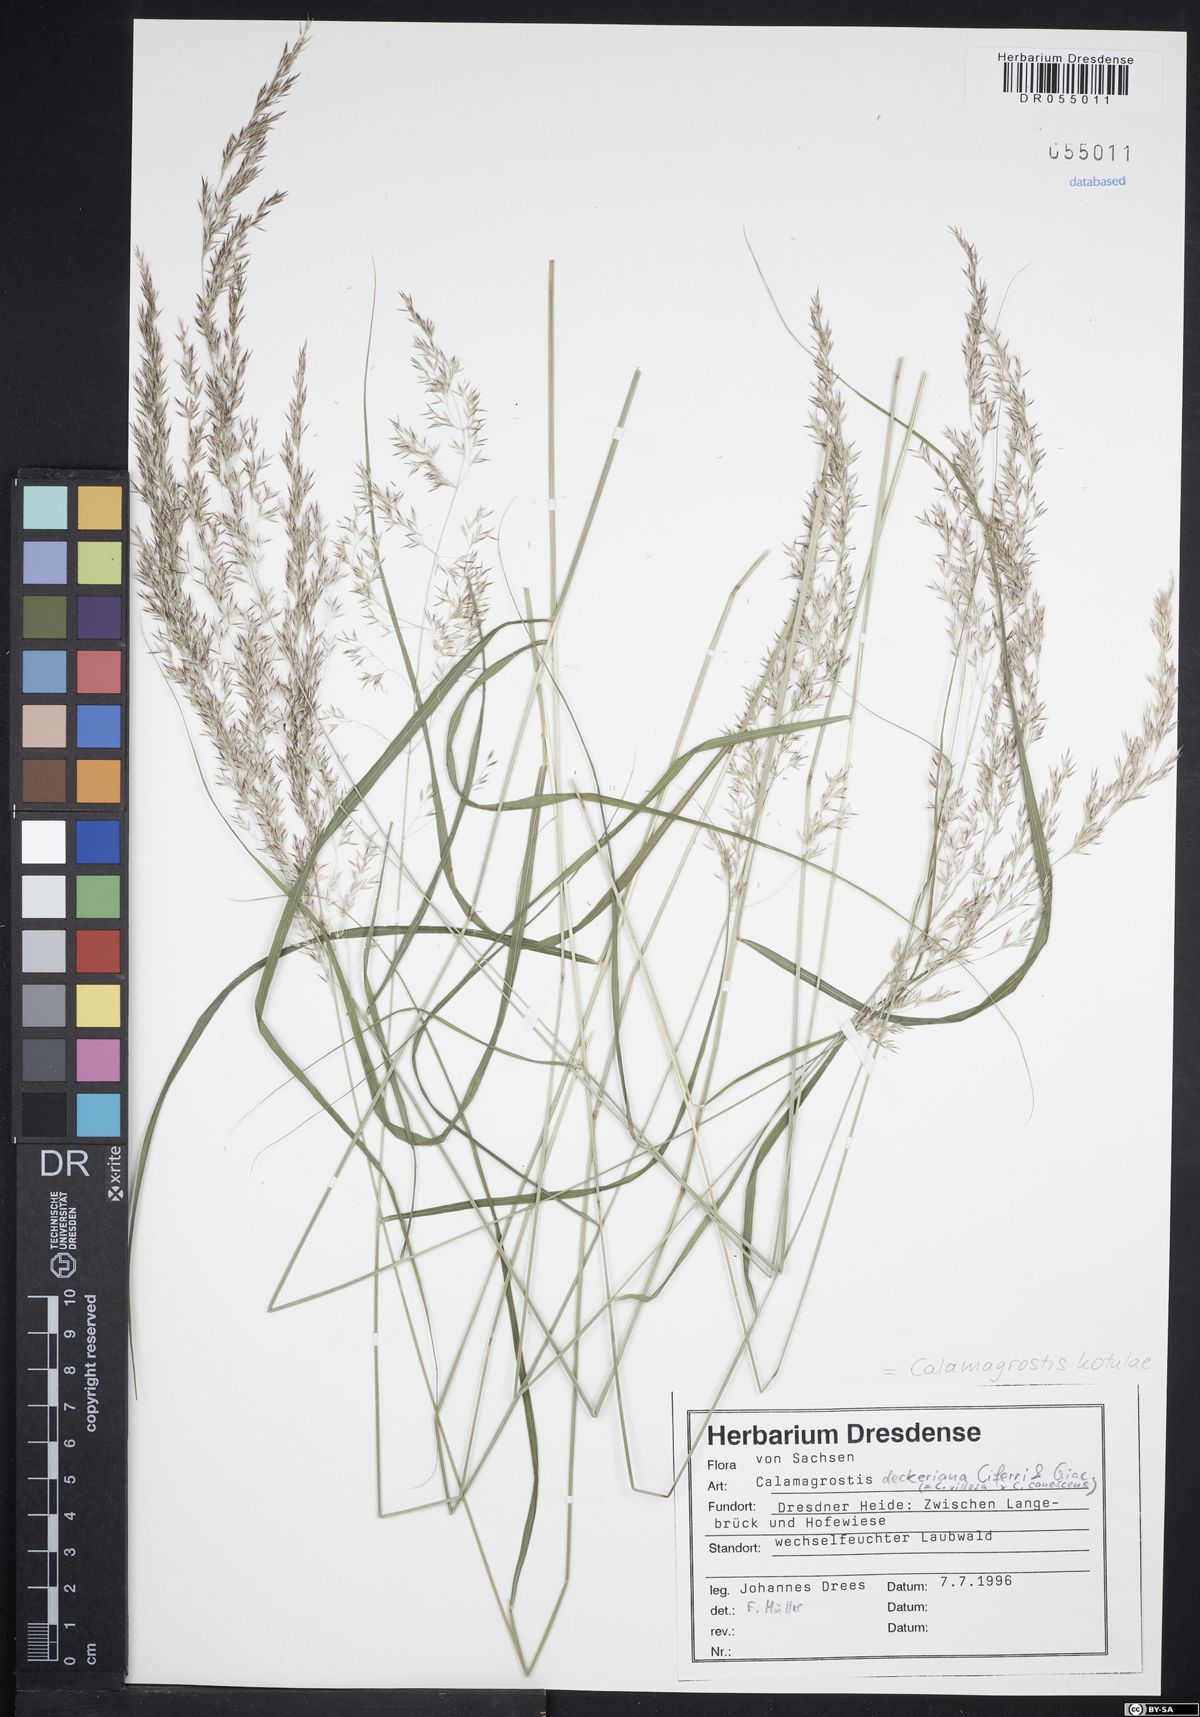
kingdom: Plantae
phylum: Tracheophyta
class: Liliopsida
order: Poales
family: Poaceae
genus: Calamagrostis
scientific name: Calamagrostis kotulae
